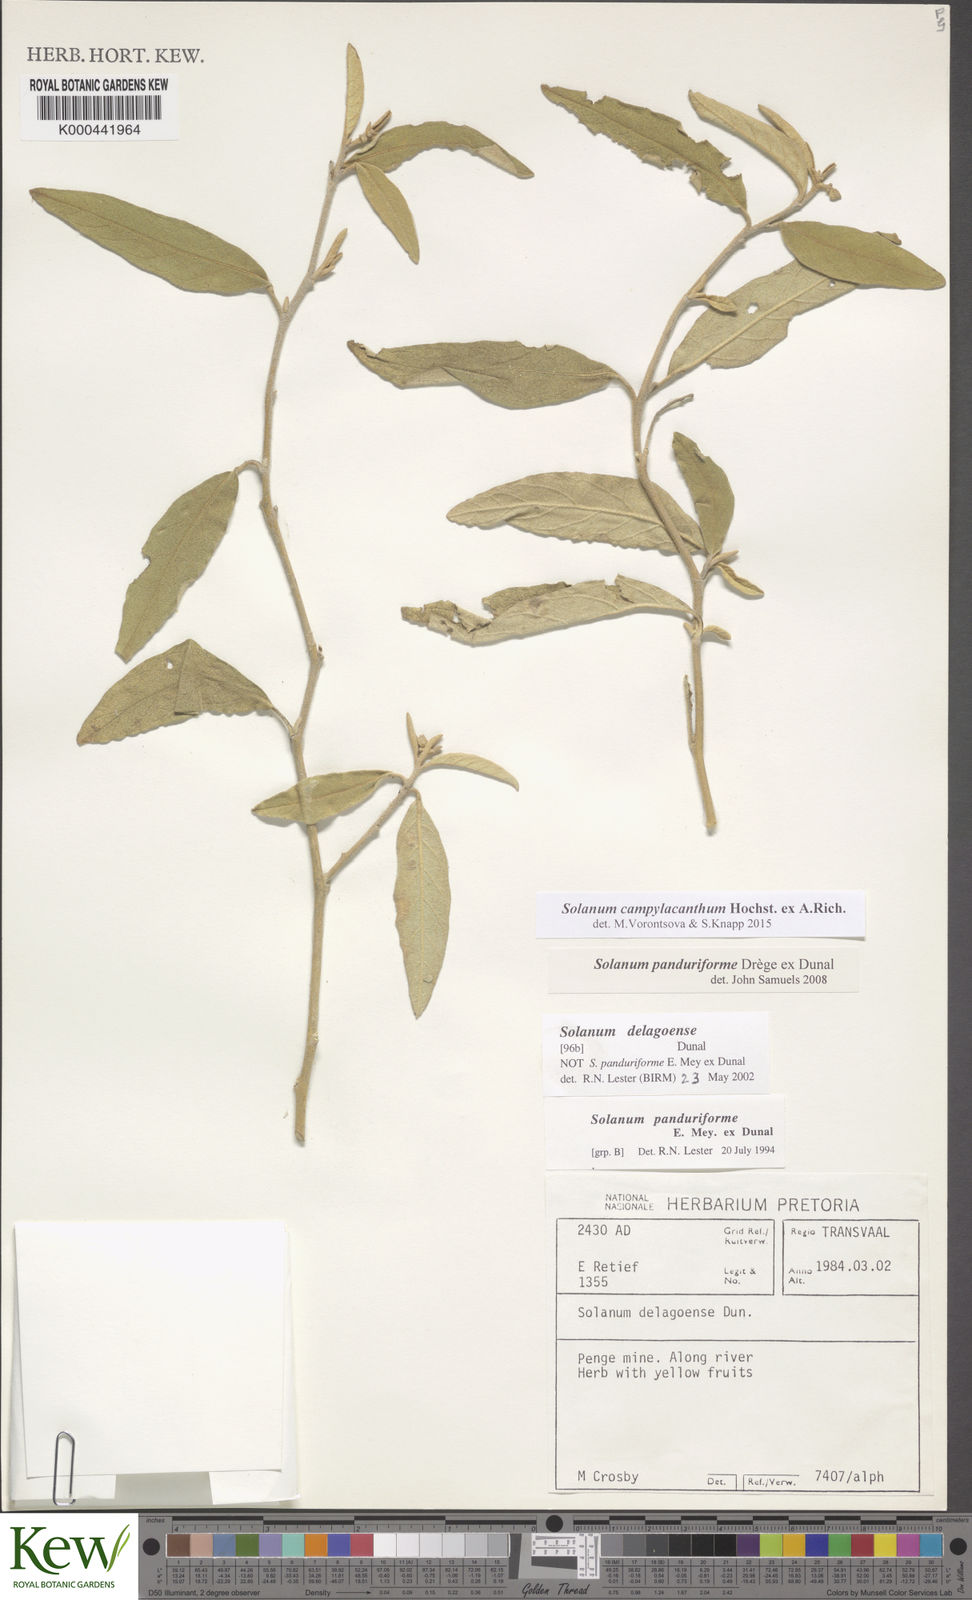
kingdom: Plantae
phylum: Tracheophyta
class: Magnoliopsida
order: Solanales
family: Solanaceae
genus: Solanum
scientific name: Solanum campylacanthum
